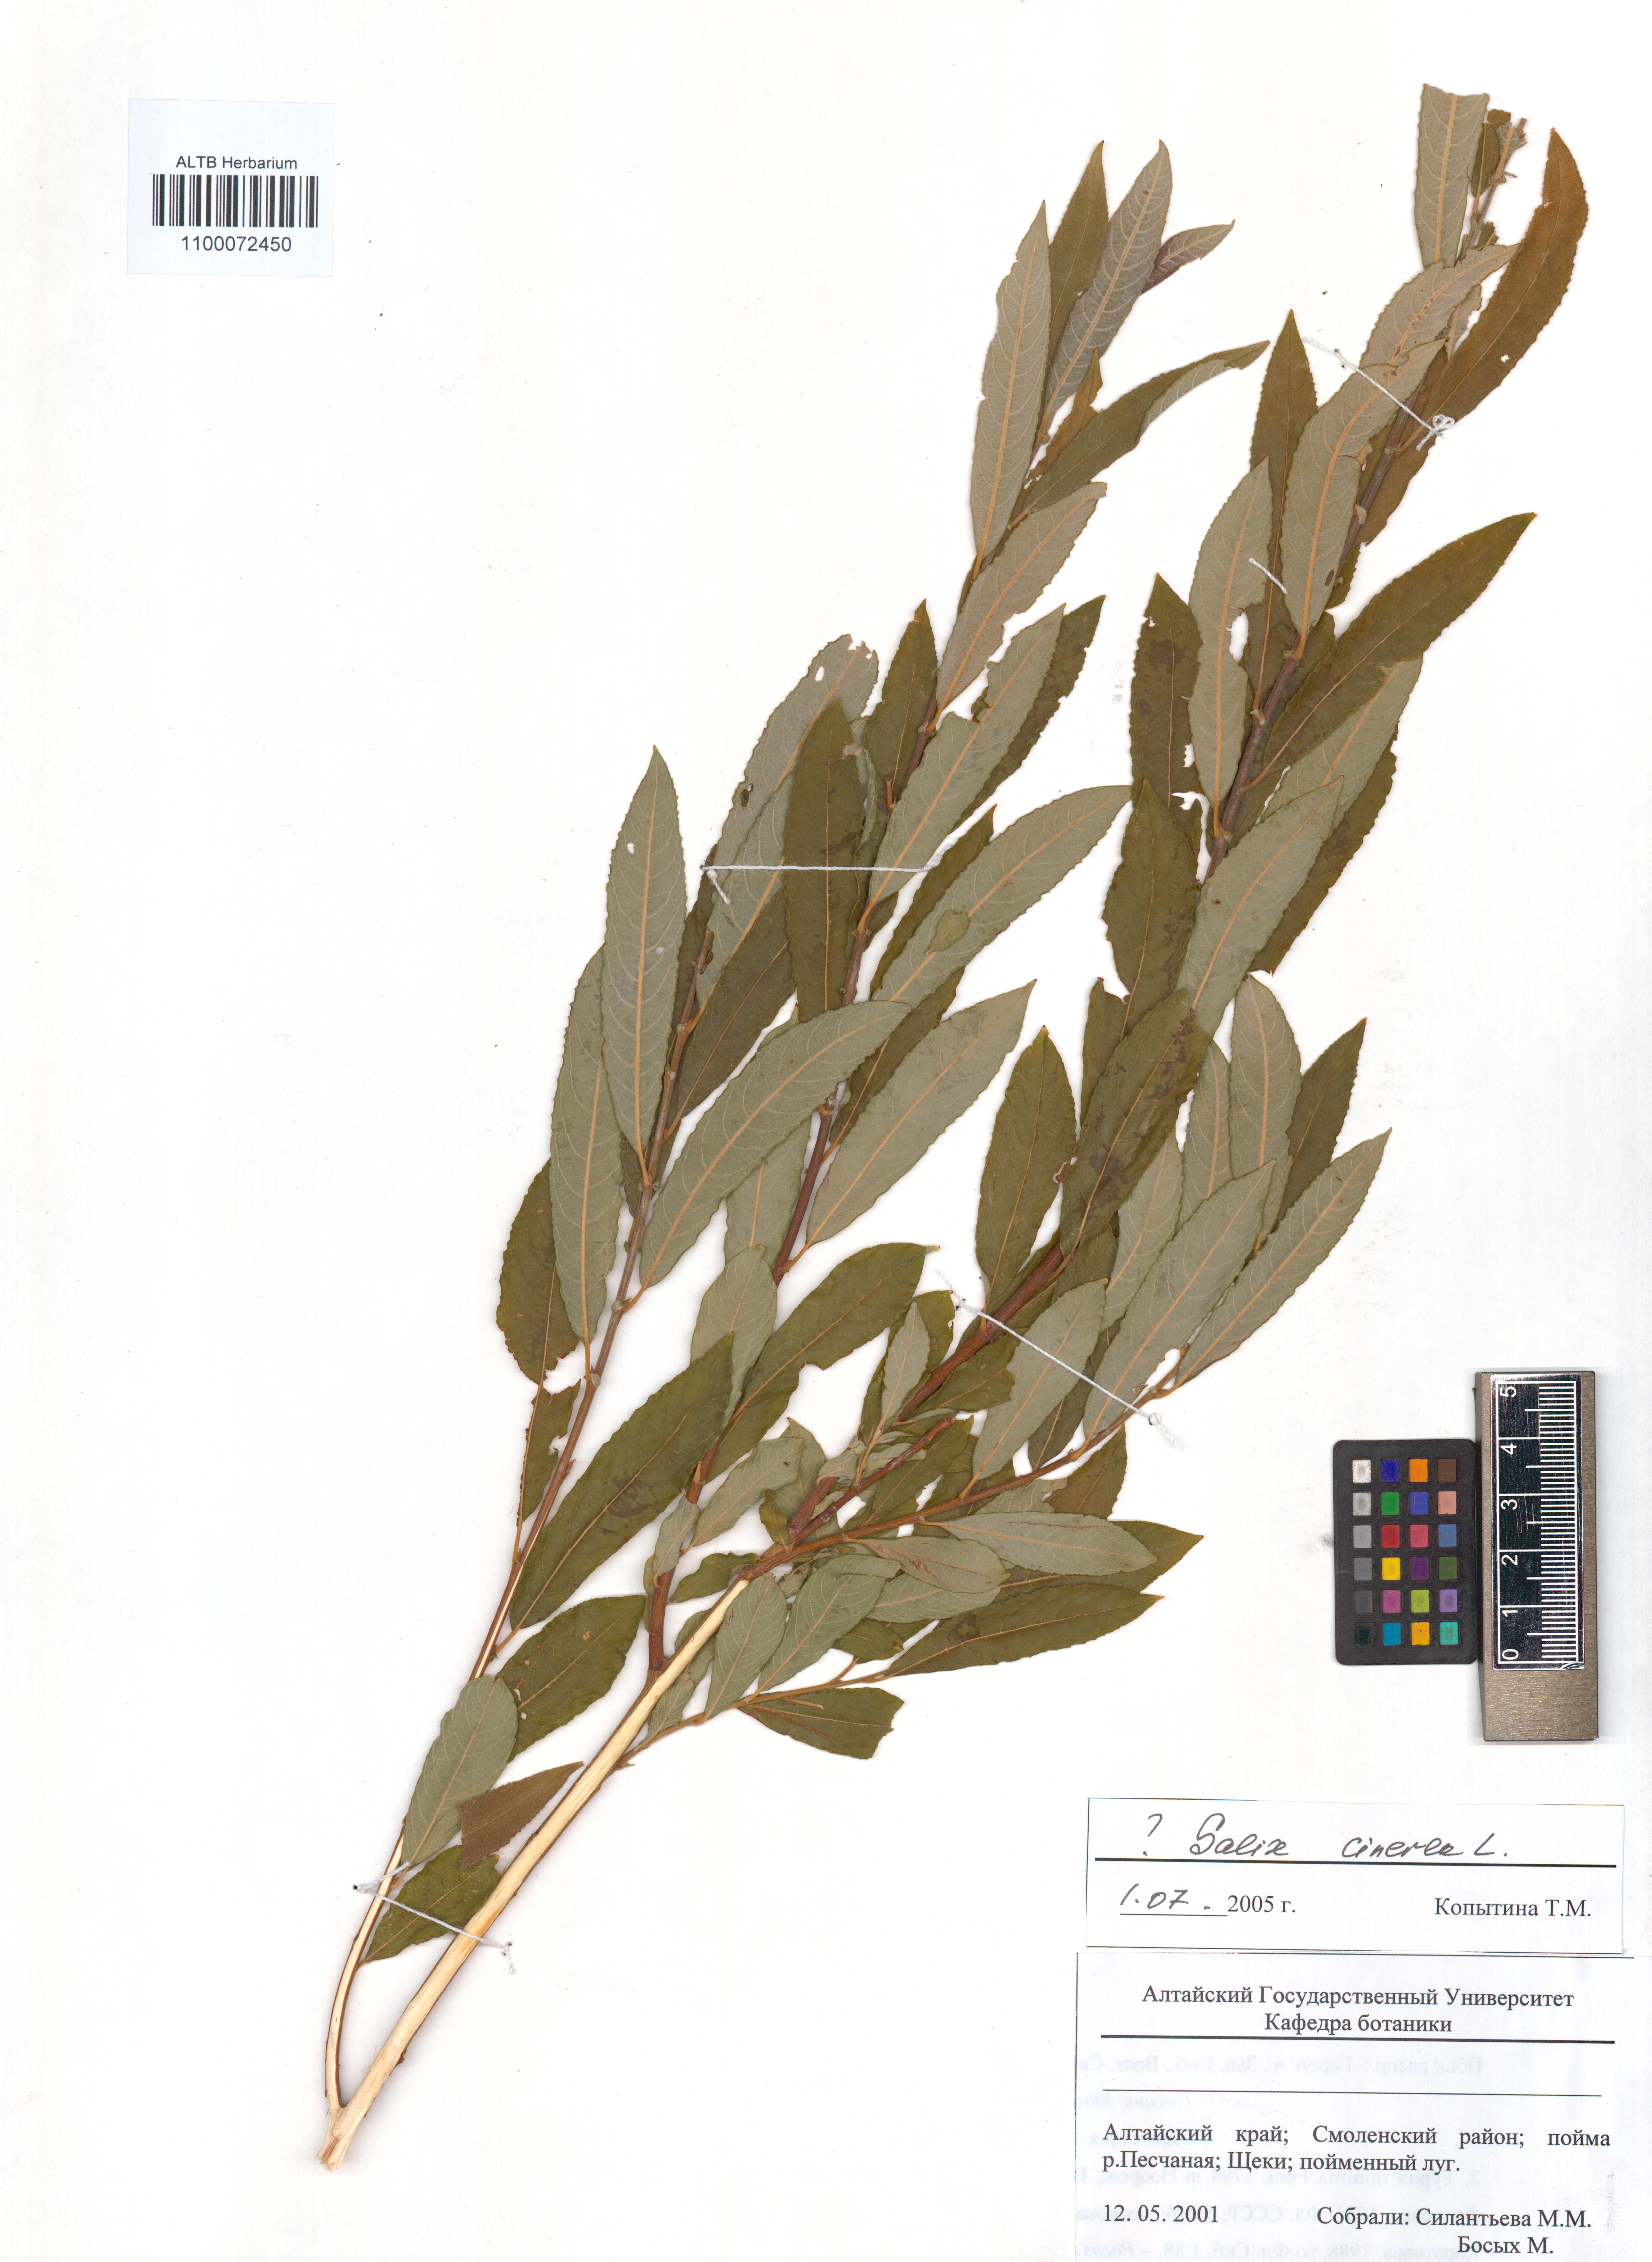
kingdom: Plantae
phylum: Tracheophyta
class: Magnoliopsida
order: Malpighiales
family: Salicaceae
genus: Salix
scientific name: Salix cinerea
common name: Common sallow
